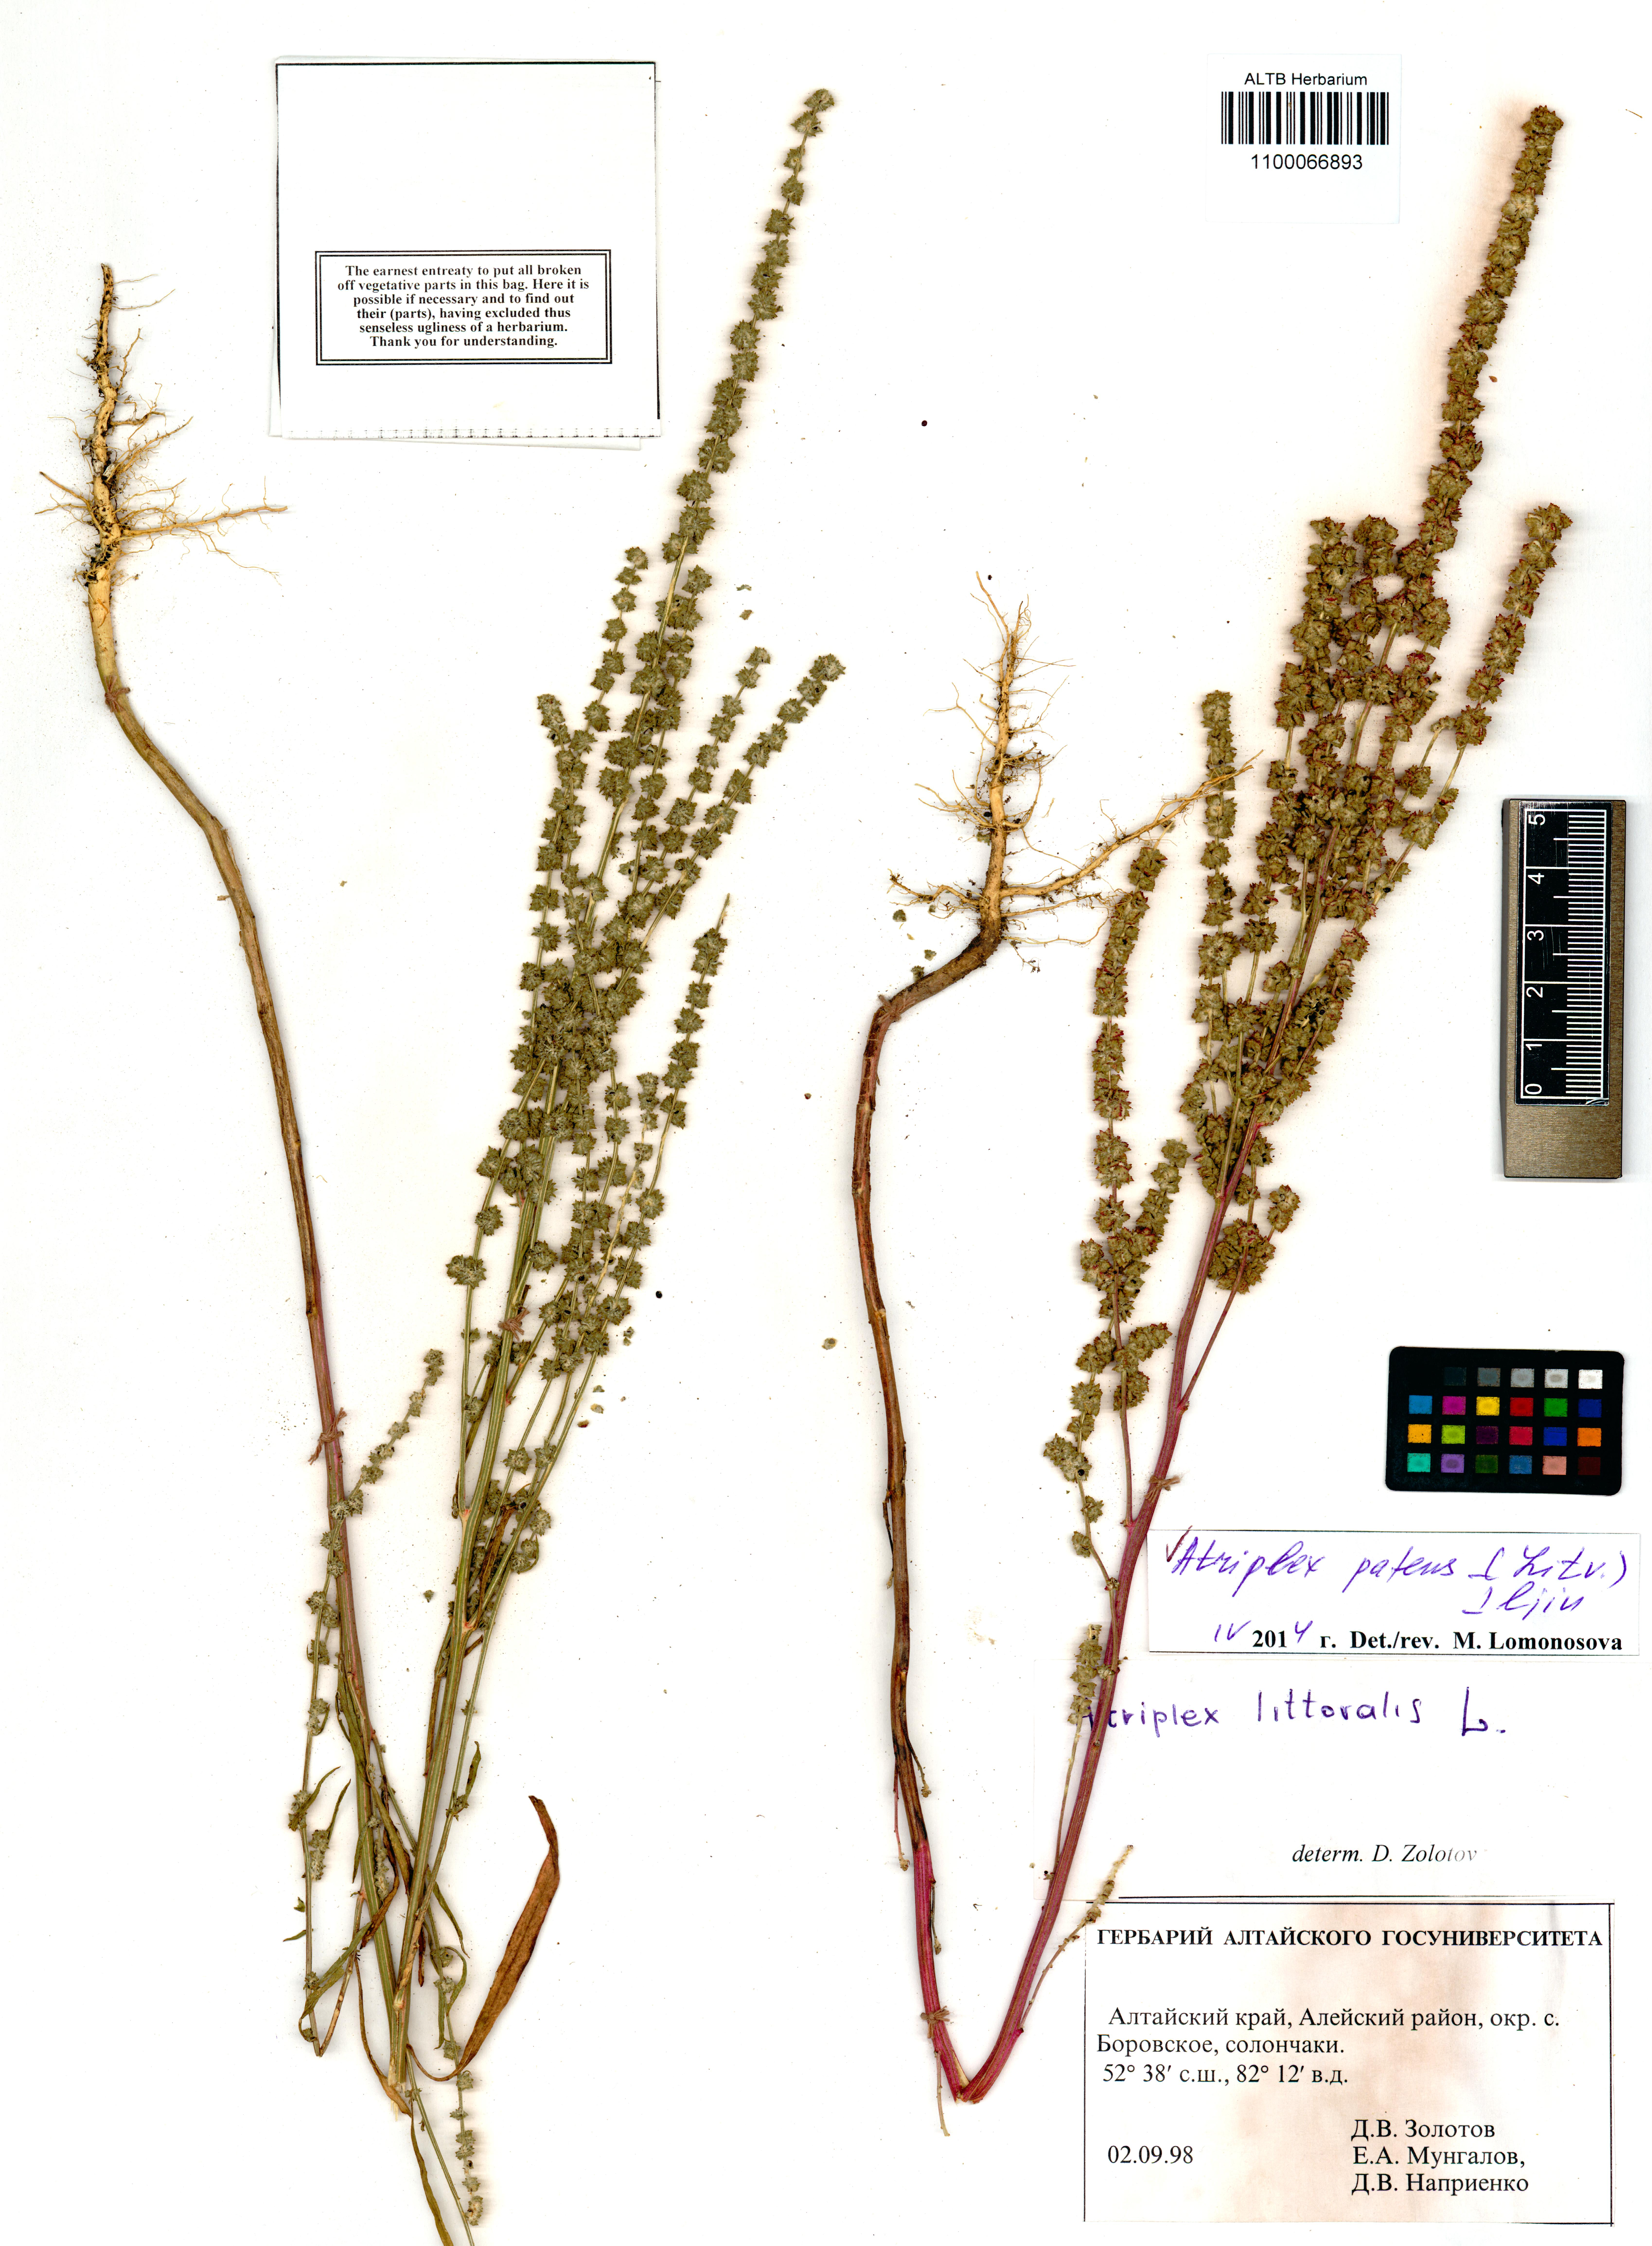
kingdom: Plantae
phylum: Tracheophyta
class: Magnoliopsida
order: Caryophyllales
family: Amaranthaceae
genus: Atriplex
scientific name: Atriplex patens
